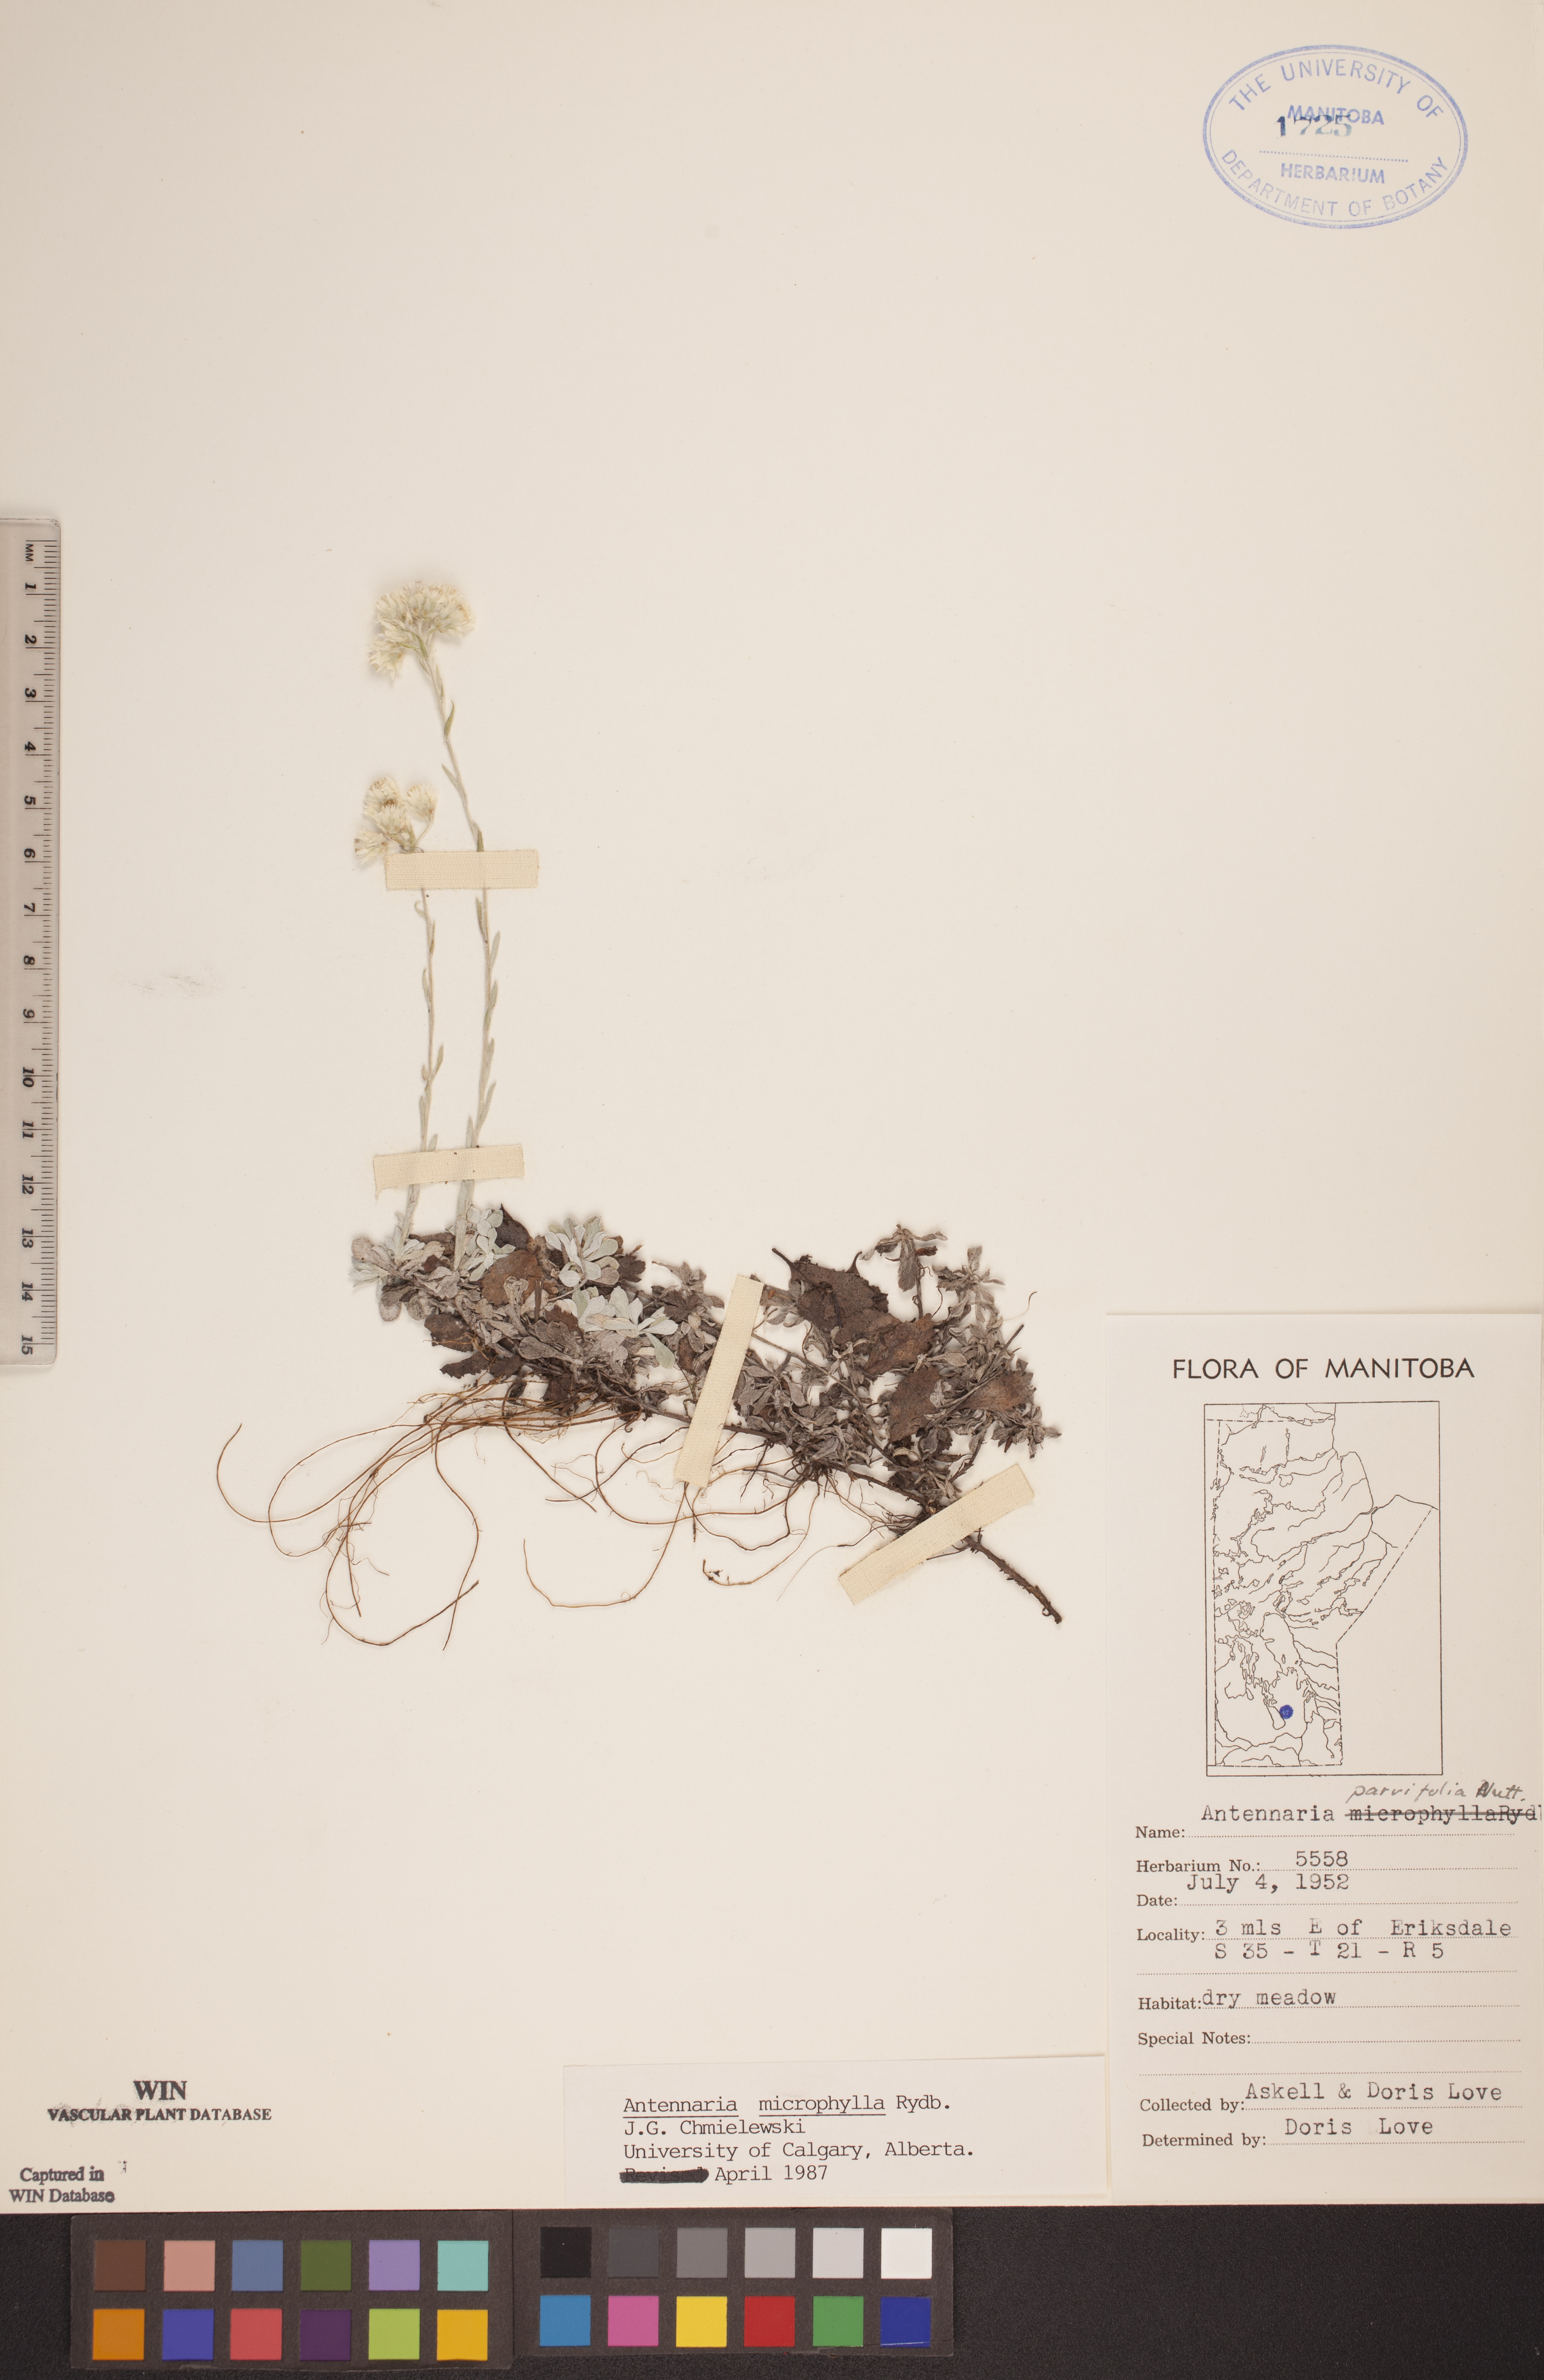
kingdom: Plantae
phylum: Tracheophyta
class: Magnoliopsida
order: Asterales
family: Asteraceae
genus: Antennaria
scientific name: Antennaria microphylla
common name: Littleleaf pussytoes
